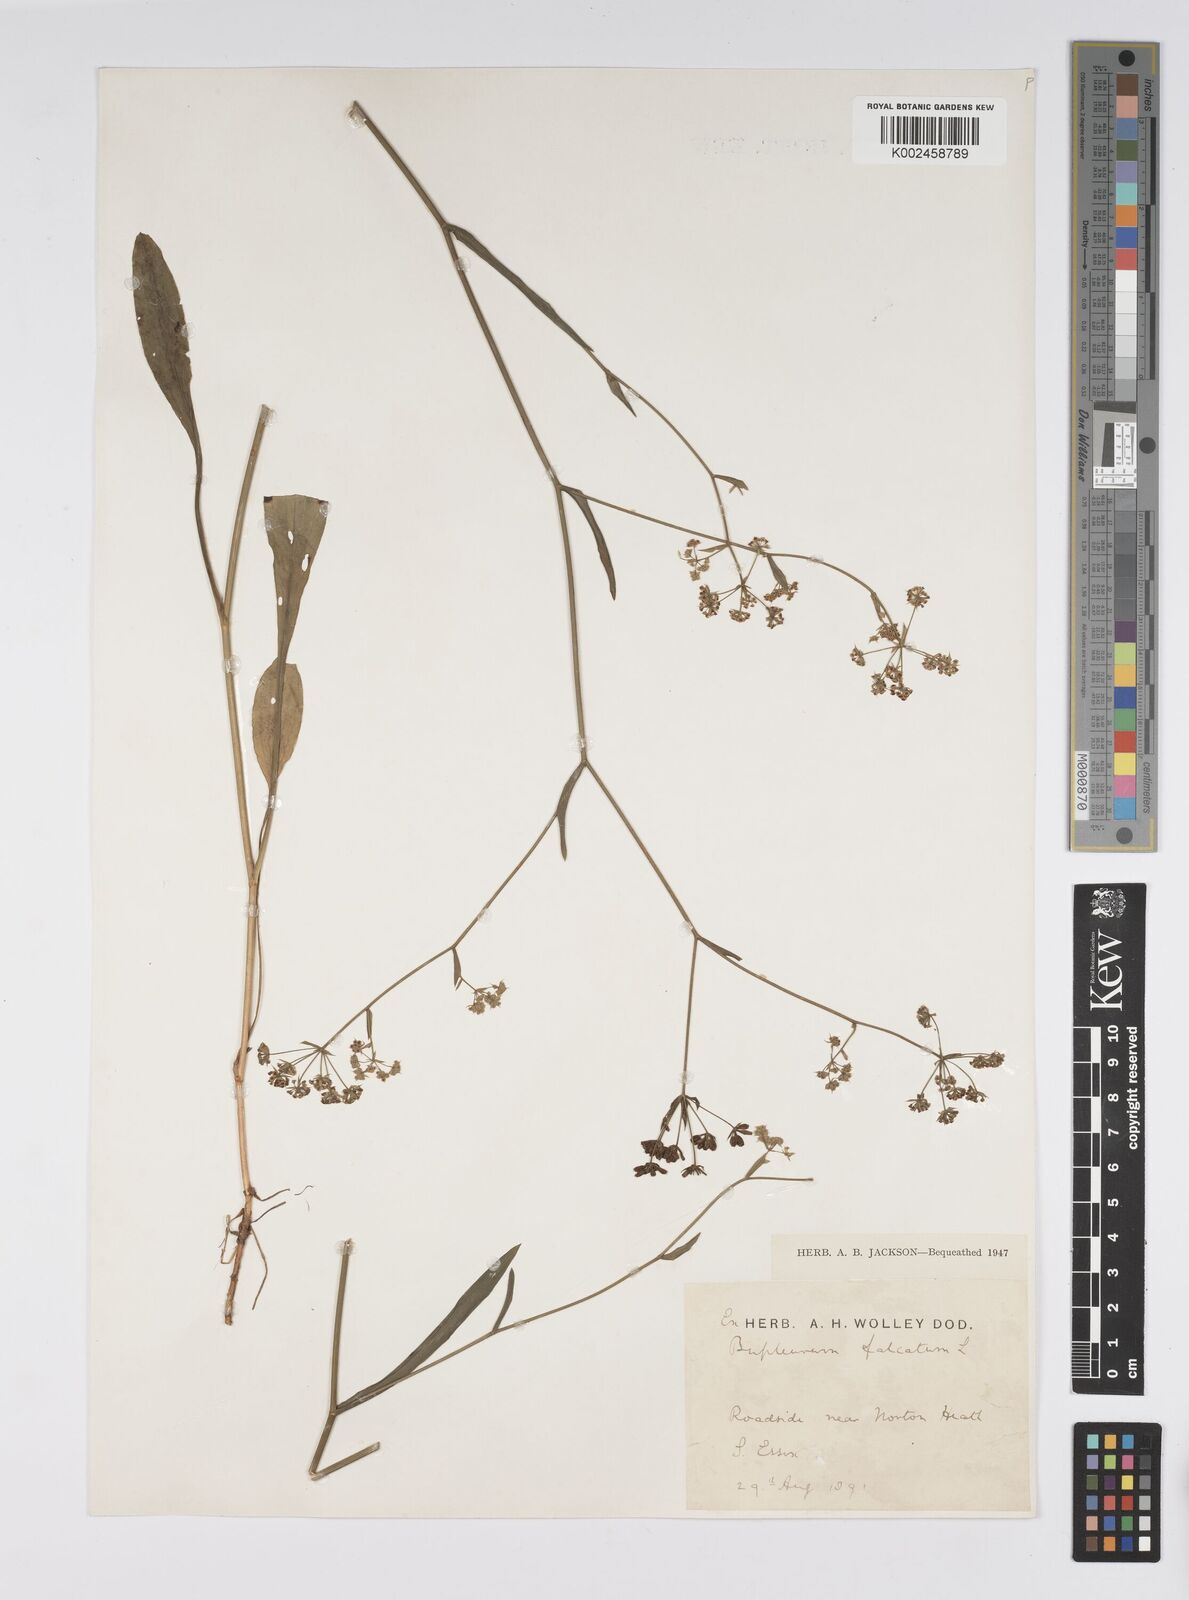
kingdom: Plantae
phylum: Tracheophyta
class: Magnoliopsida
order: Apiales
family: Apiaceae
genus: Bupleurum
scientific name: Bupleurum falcatum
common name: Sickle-leaved hare's-ear
